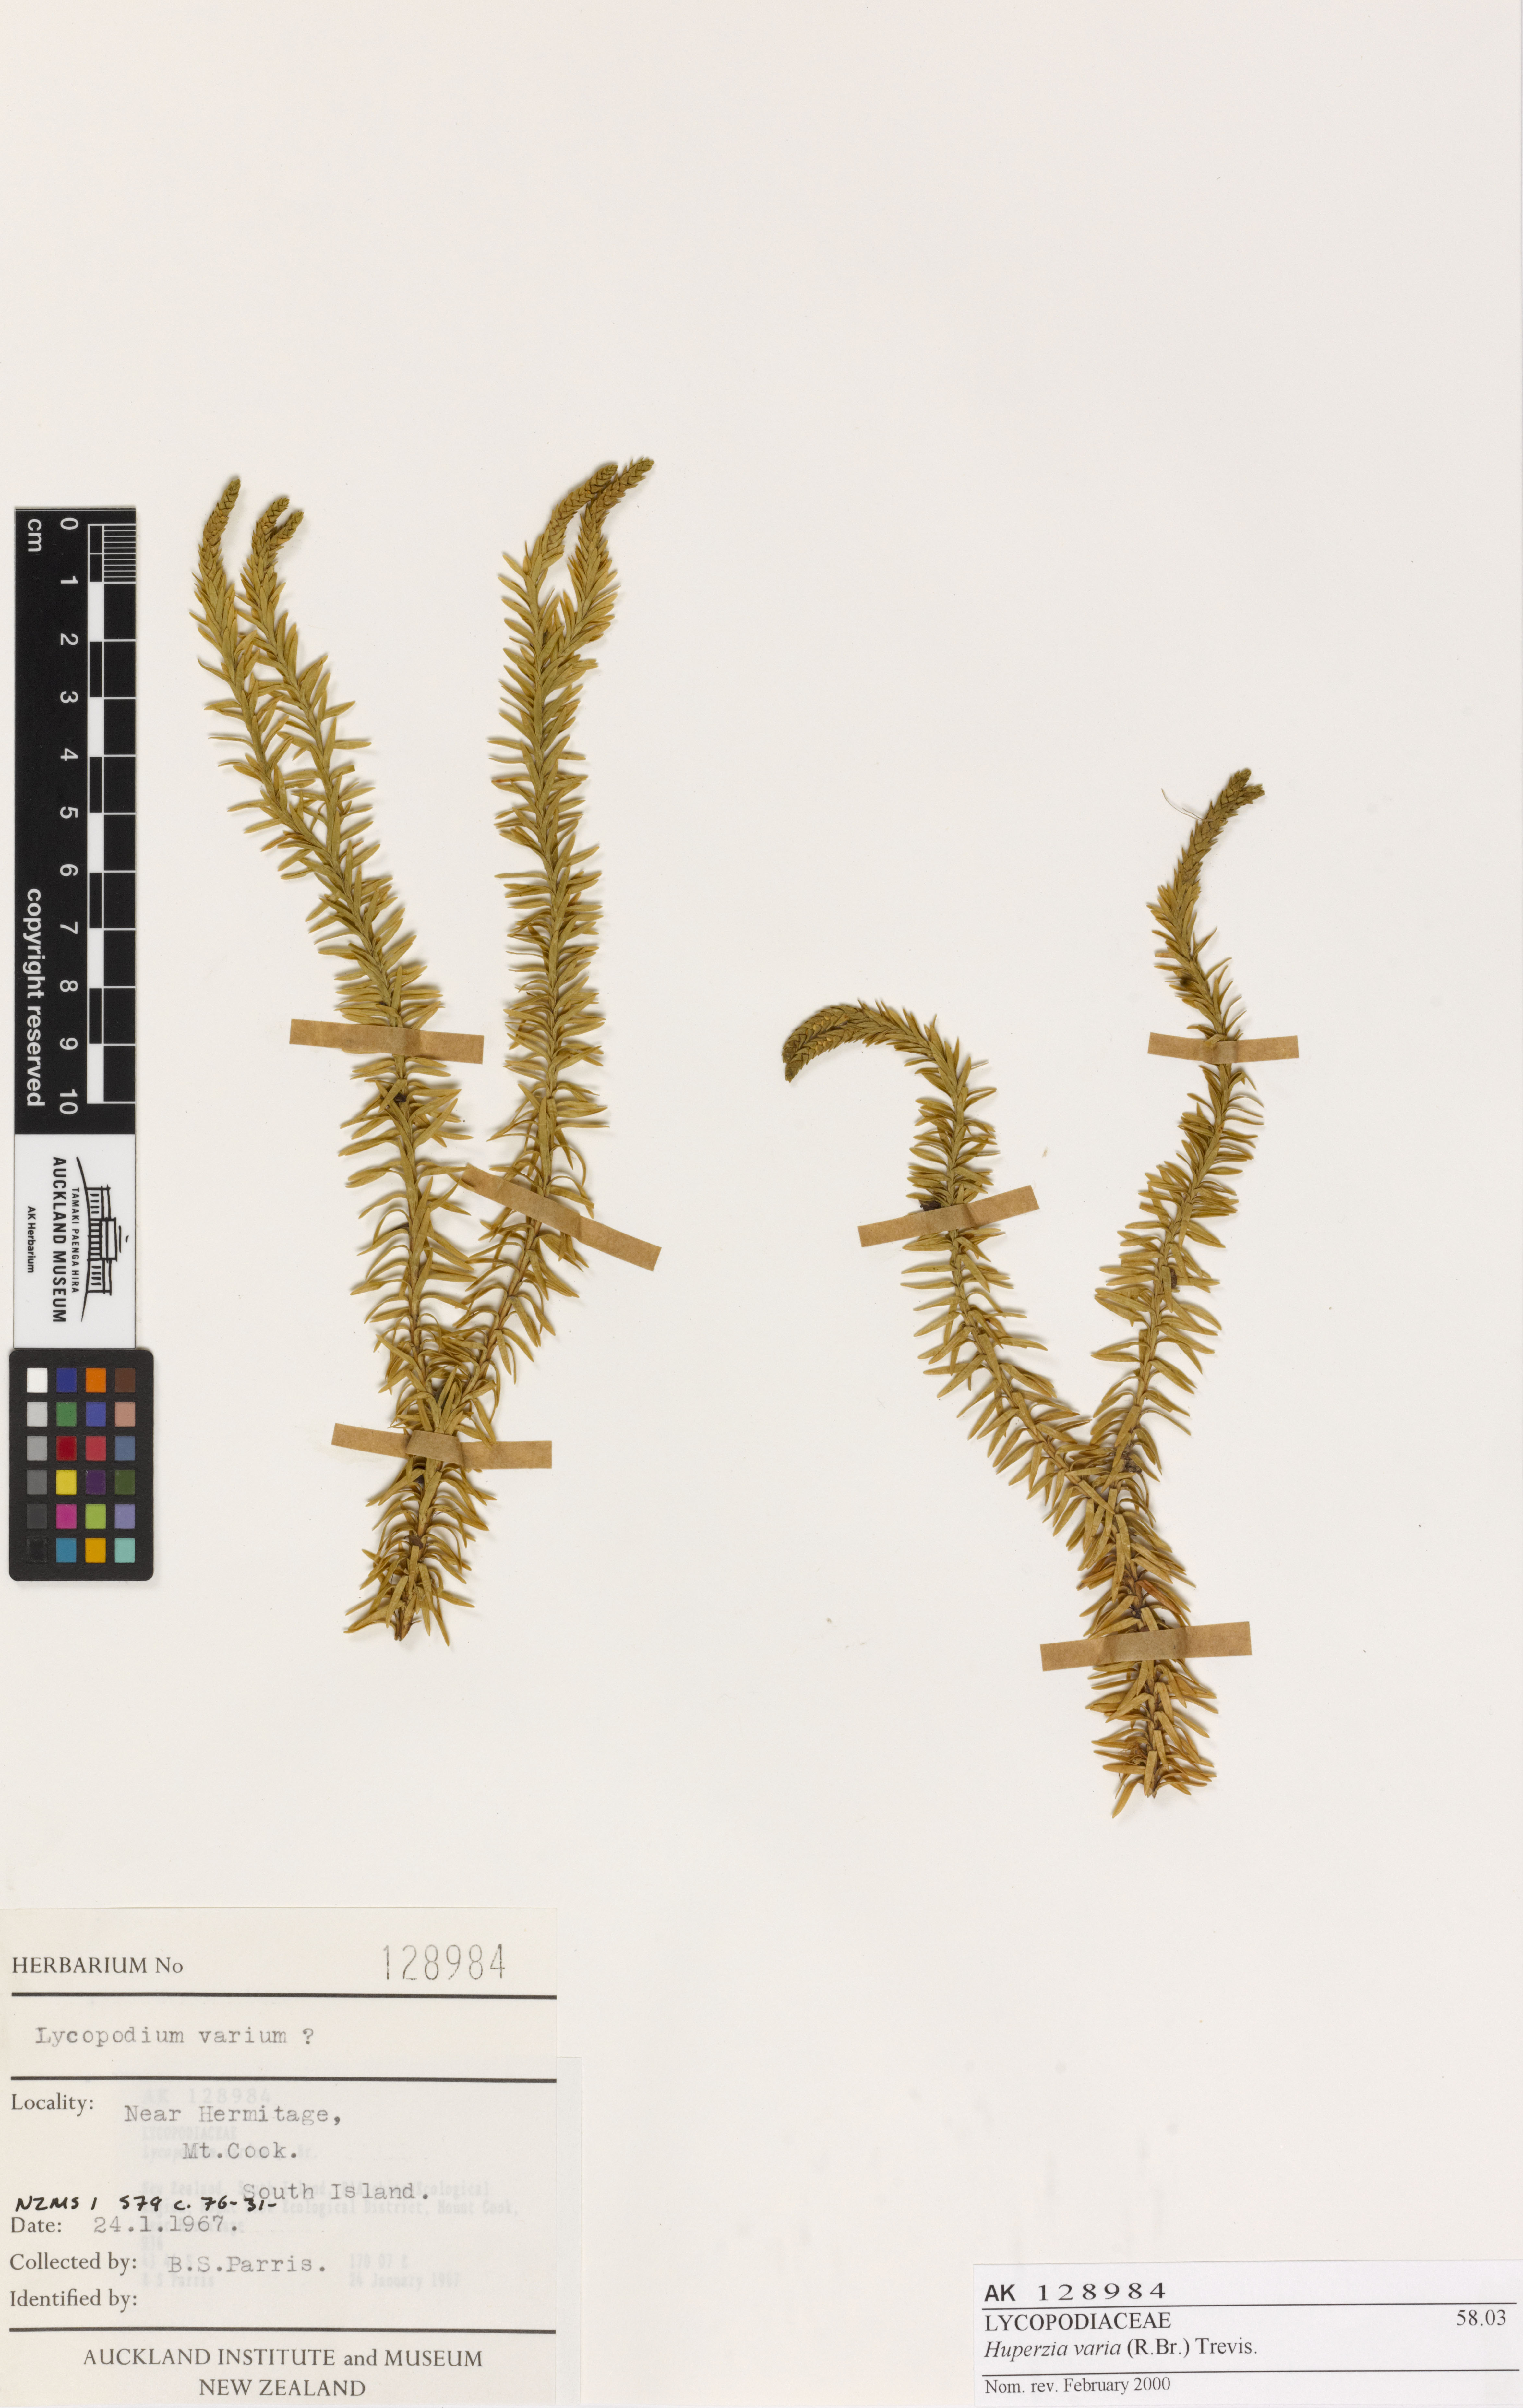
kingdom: Plantae
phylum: Tracheophyta
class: Lycopodiopsida
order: Lycopodiales
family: Lycopodiaceae
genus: Phlegmariurus
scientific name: Phlegmariurus varius
